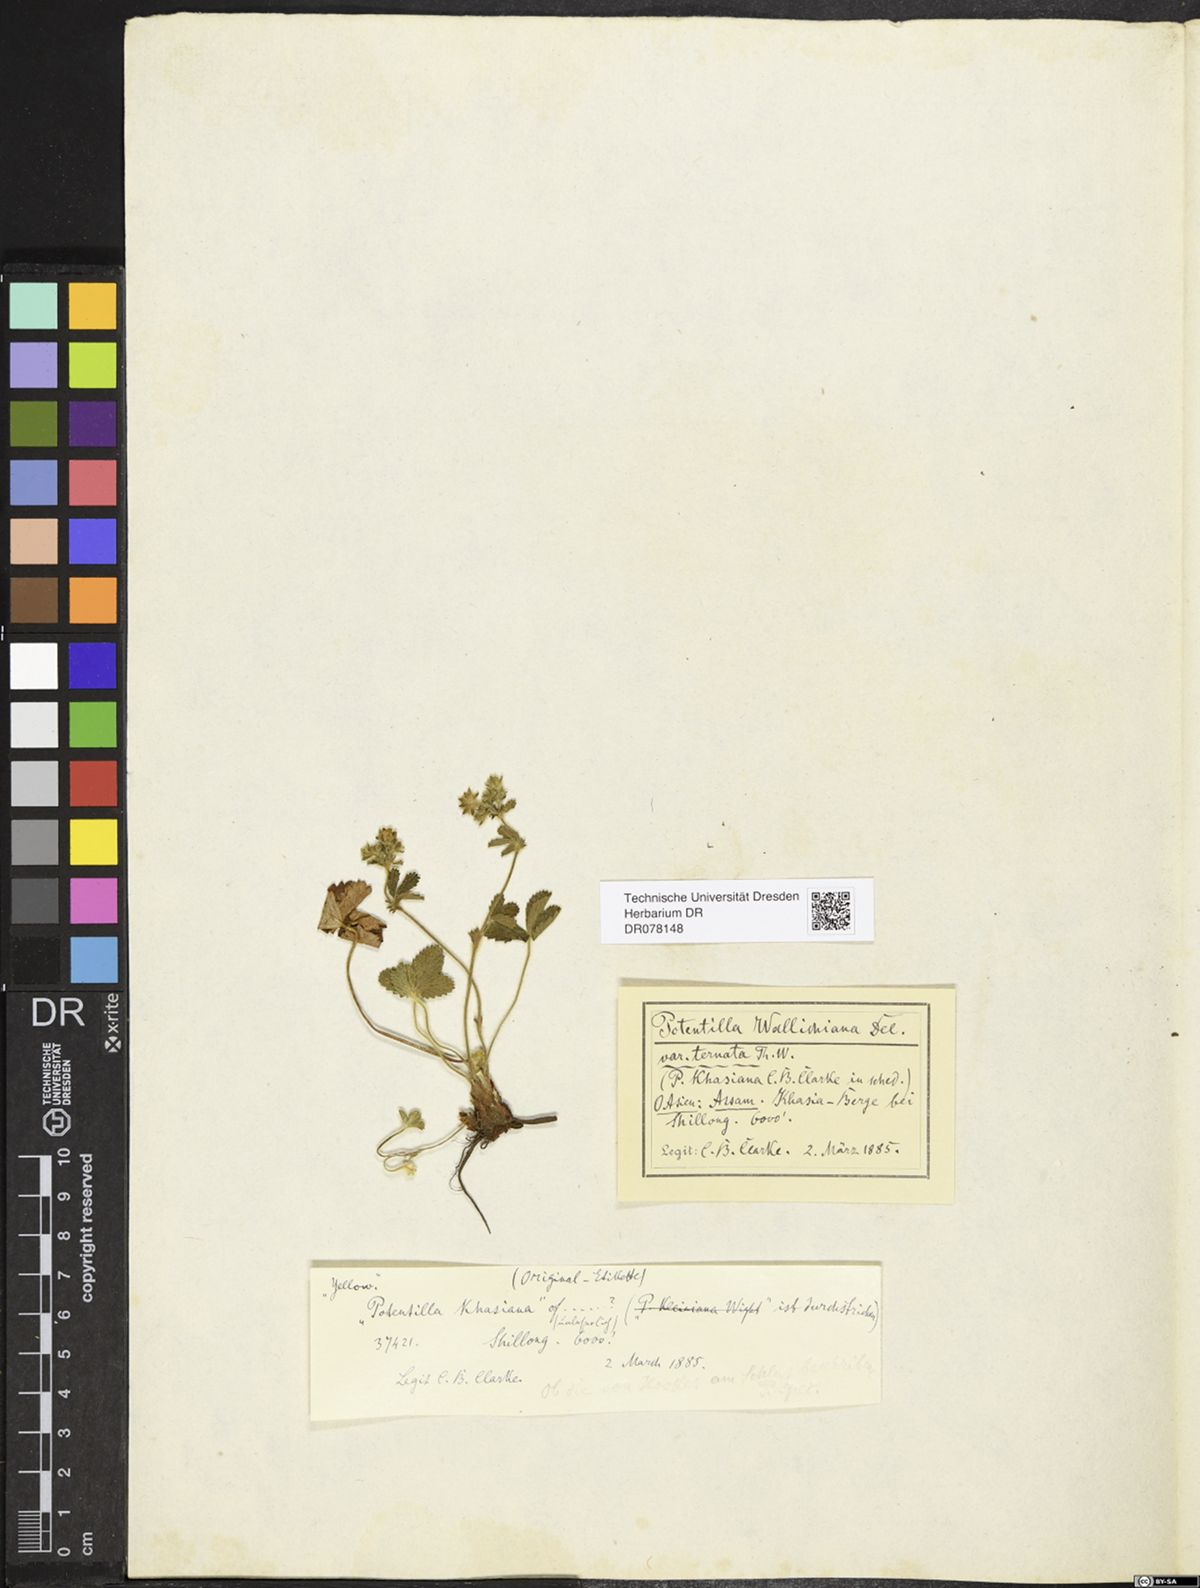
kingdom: Plantae
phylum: Tracheophyta
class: Magnoliopsida
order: Rosales
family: Rosaceae
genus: Potentilla
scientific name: Potentilla khasiana
